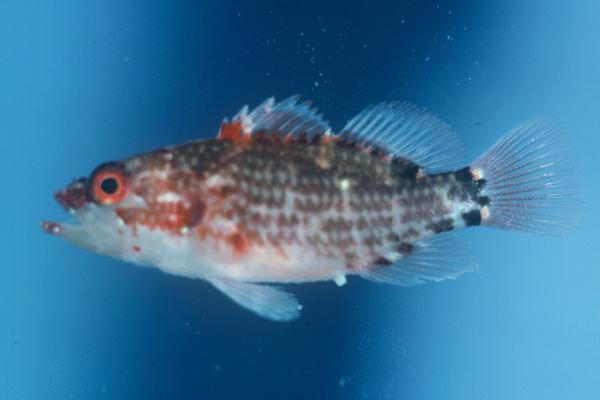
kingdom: Animalia
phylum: Chordata
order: Perciformes
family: Serranidae
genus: Plectranthias
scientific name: Plectranthias longimanus
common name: Longfin perchlet
